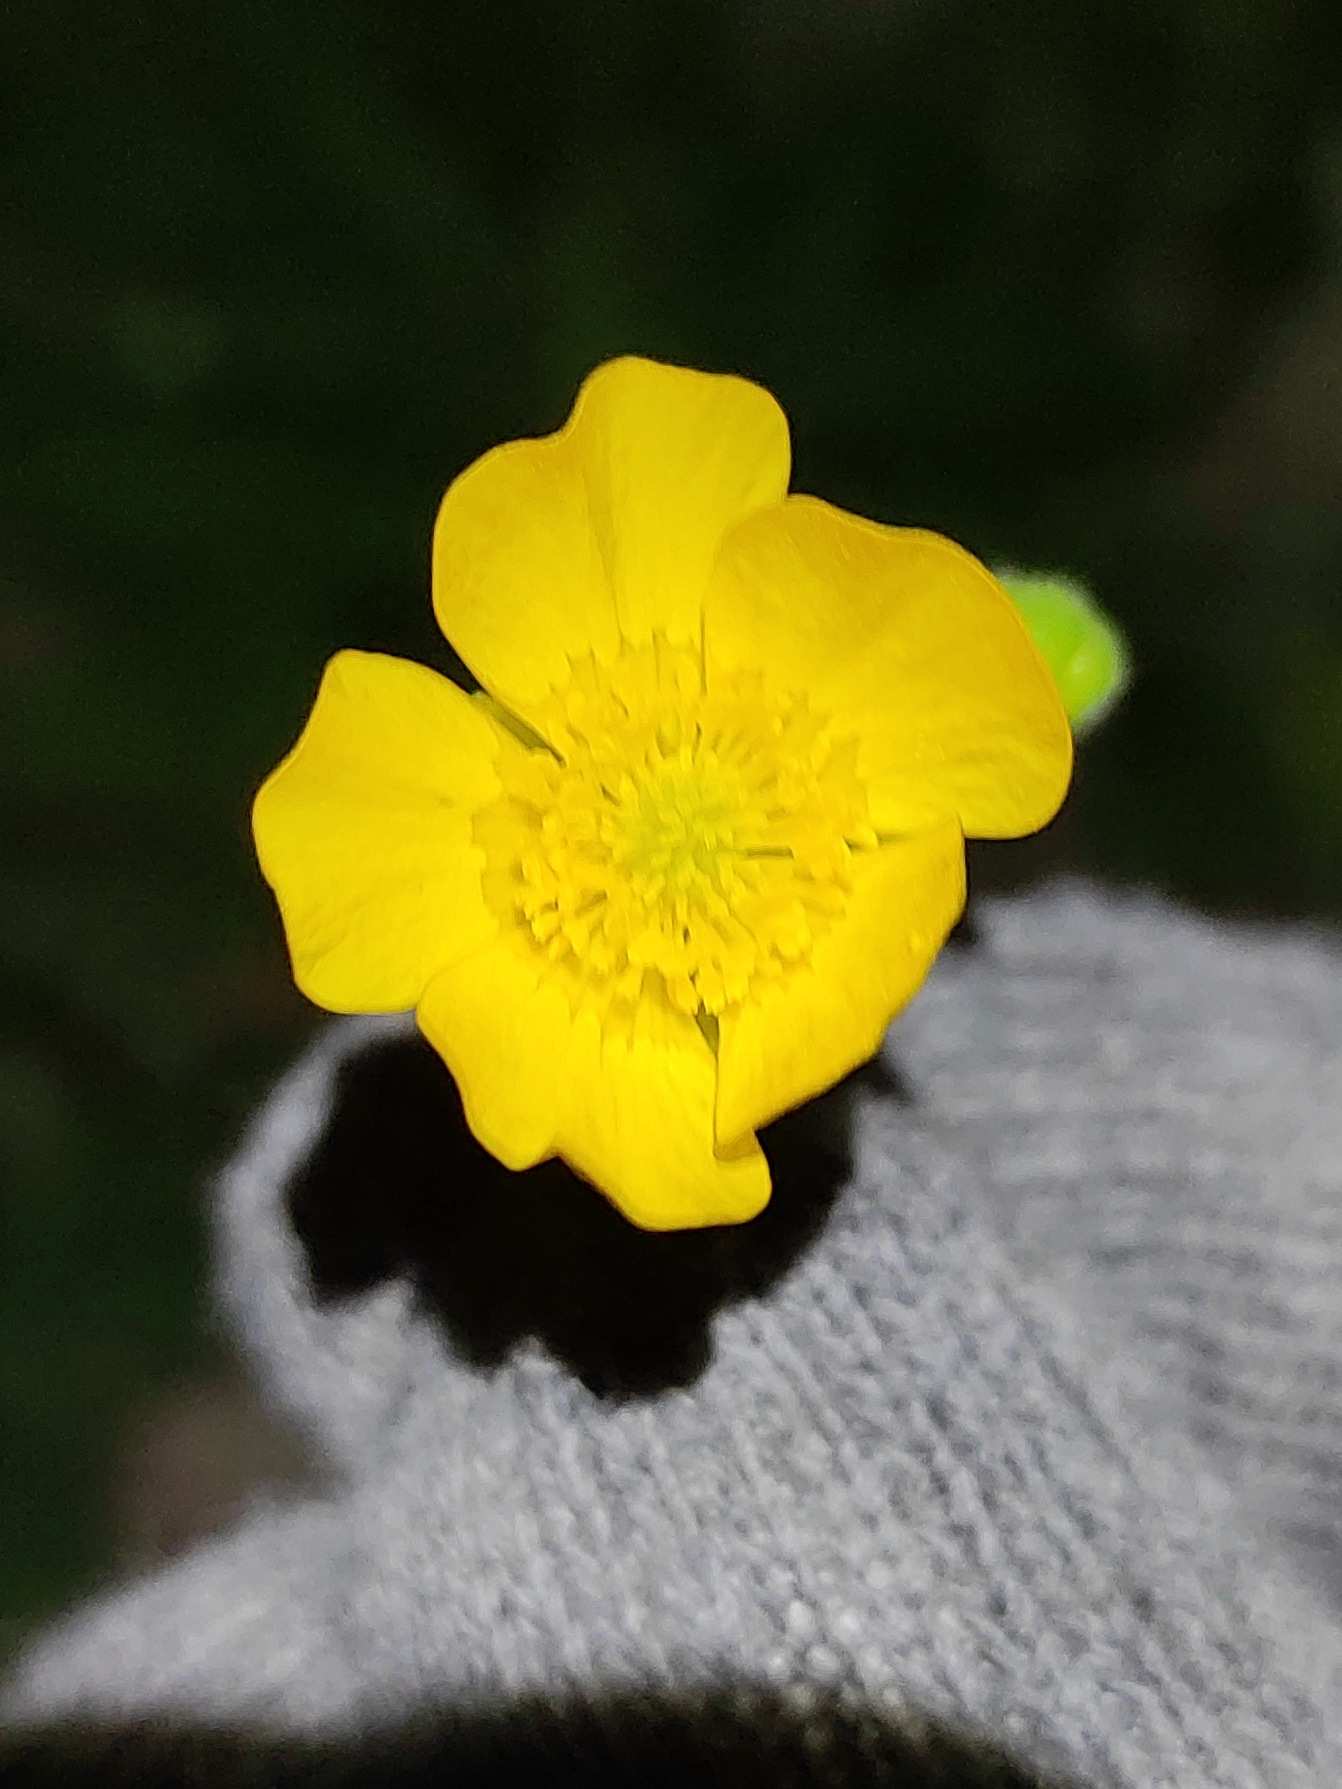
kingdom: Plantae
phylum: Tracheophyta
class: Magnoliopsida
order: Ranunculales
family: Ranunculaceae
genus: Ranunculus
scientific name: Ranunculus acris
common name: Bidende ranunkel
